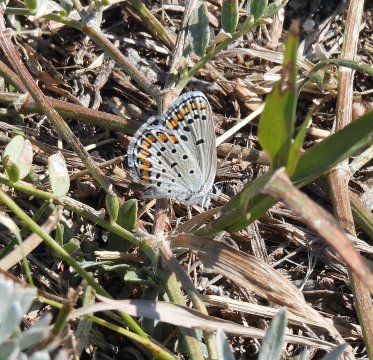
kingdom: Animalia
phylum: Arthropoda
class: Insecta
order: Lepidoptera
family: Lycaenidae
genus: Lycaeides
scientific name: Lycaeides melissa
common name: Melissa Blue
